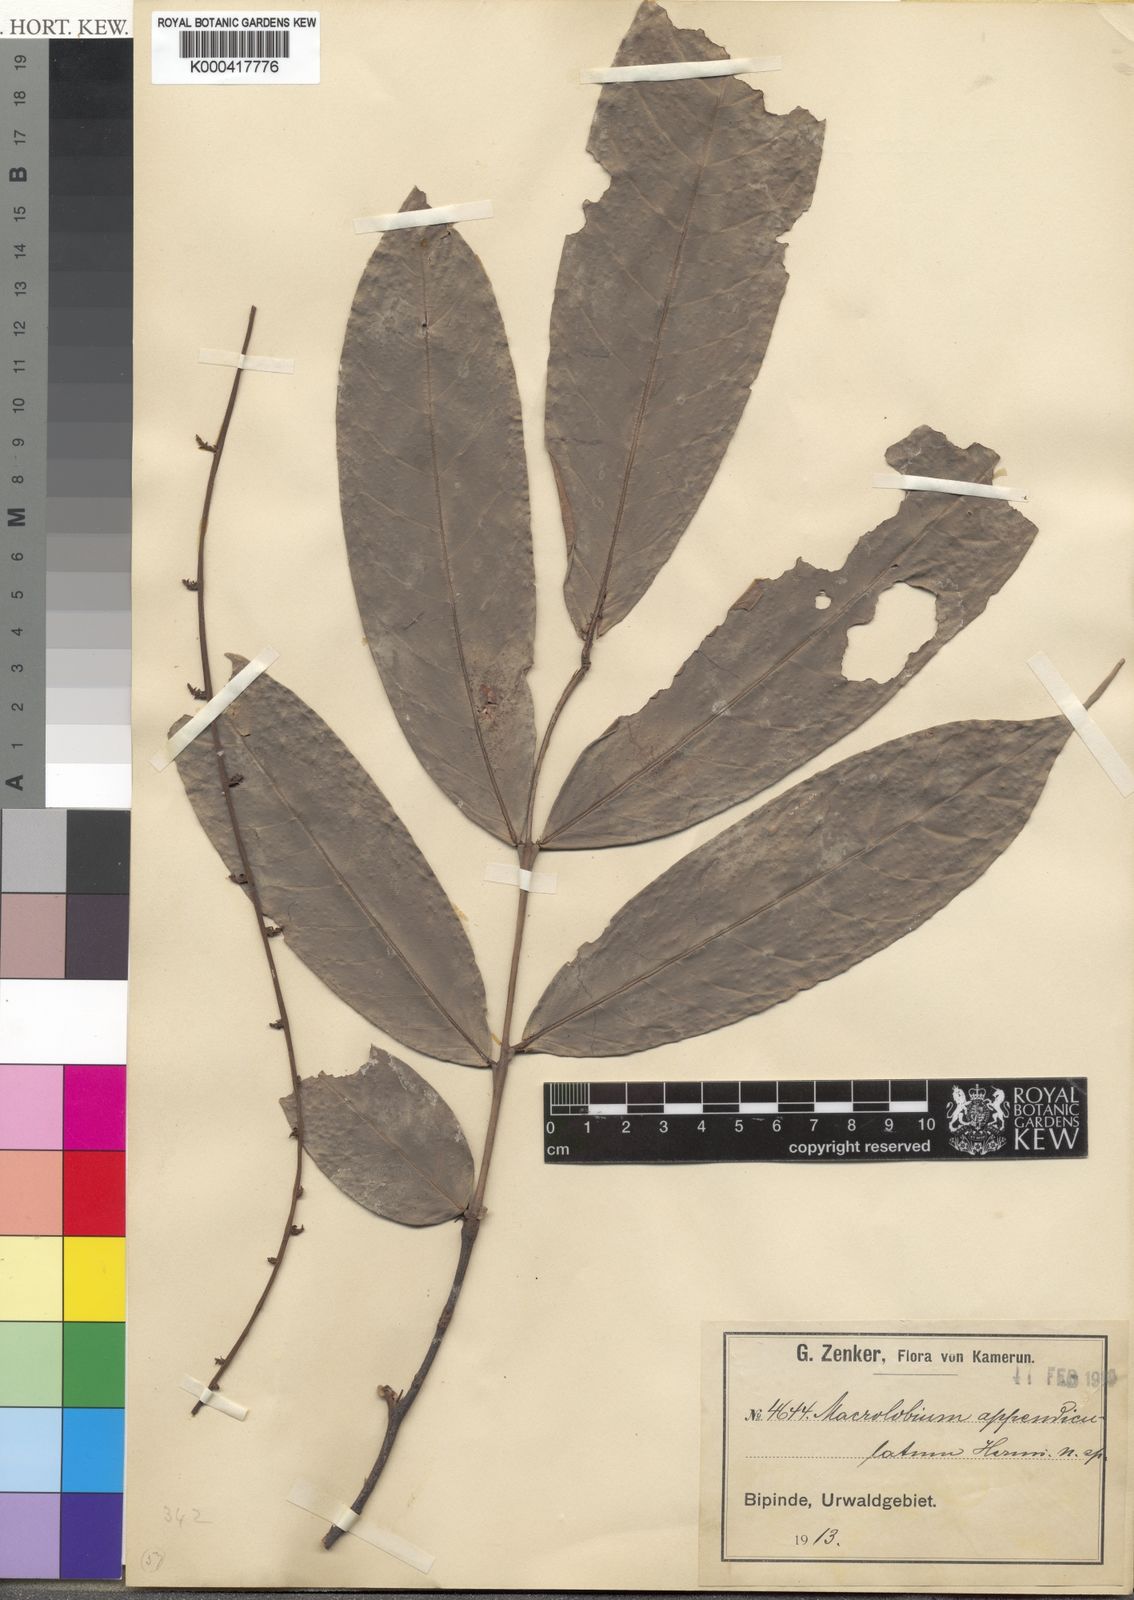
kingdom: Plantae
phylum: Tracheophyta
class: Magnoliopsida
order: Fabales
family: Fabaceae
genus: Englerodendron
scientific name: Englerodendron leptorrhachis
